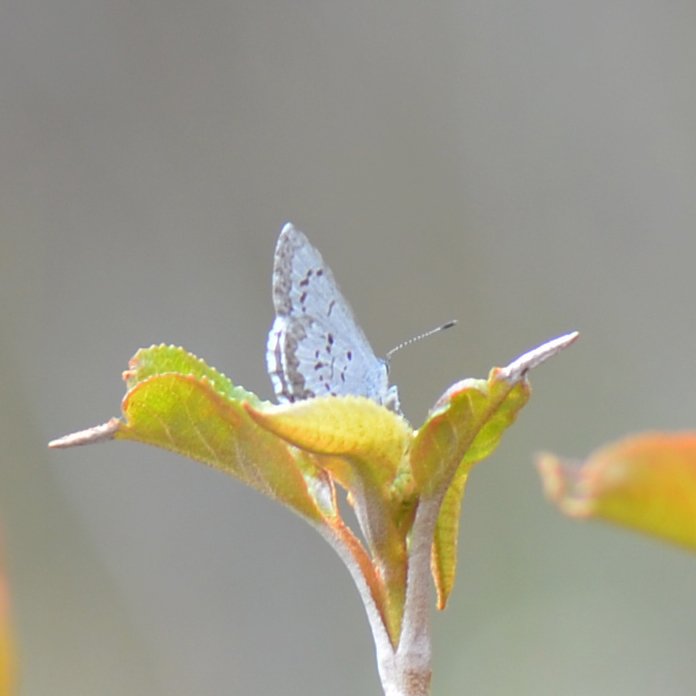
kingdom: Animalia
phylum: Arthropoda
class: Insecta
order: Lepidoptera
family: Lycaenidae
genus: Celastrina
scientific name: Celastrina lucia
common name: Northern Spring Azure
